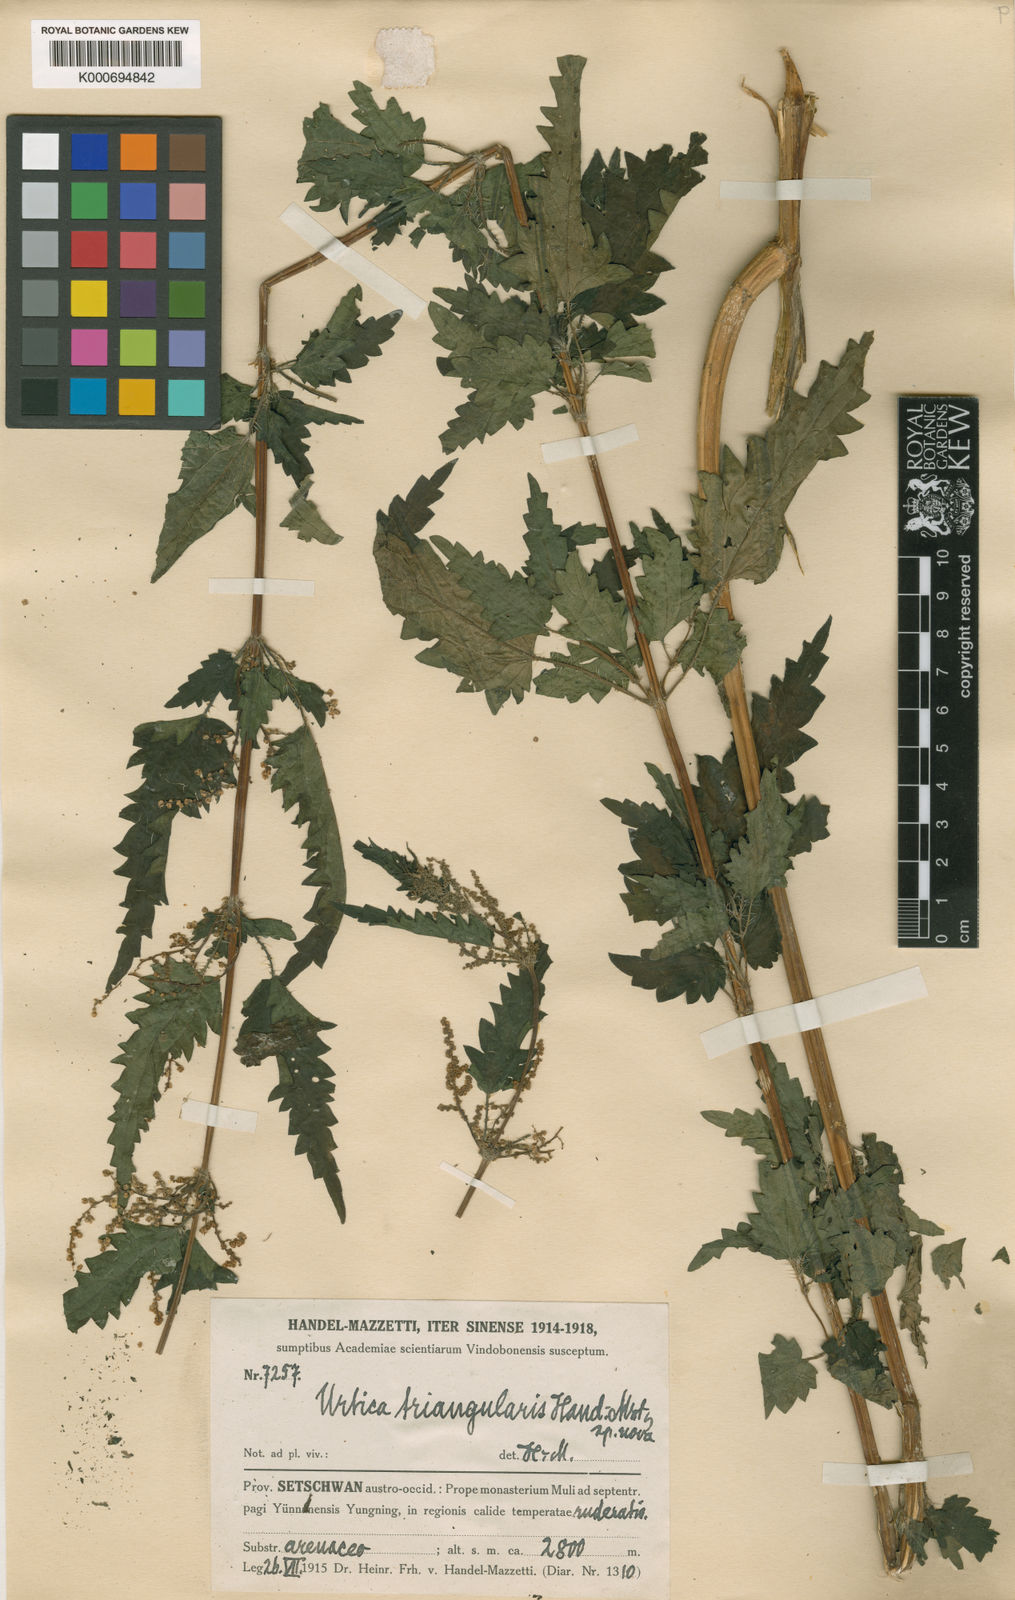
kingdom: Plantae
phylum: Tracheophyta
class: Magnoliopsida
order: Rosales
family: Urticaceae
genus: Urtica
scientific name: Urtica triangularis
